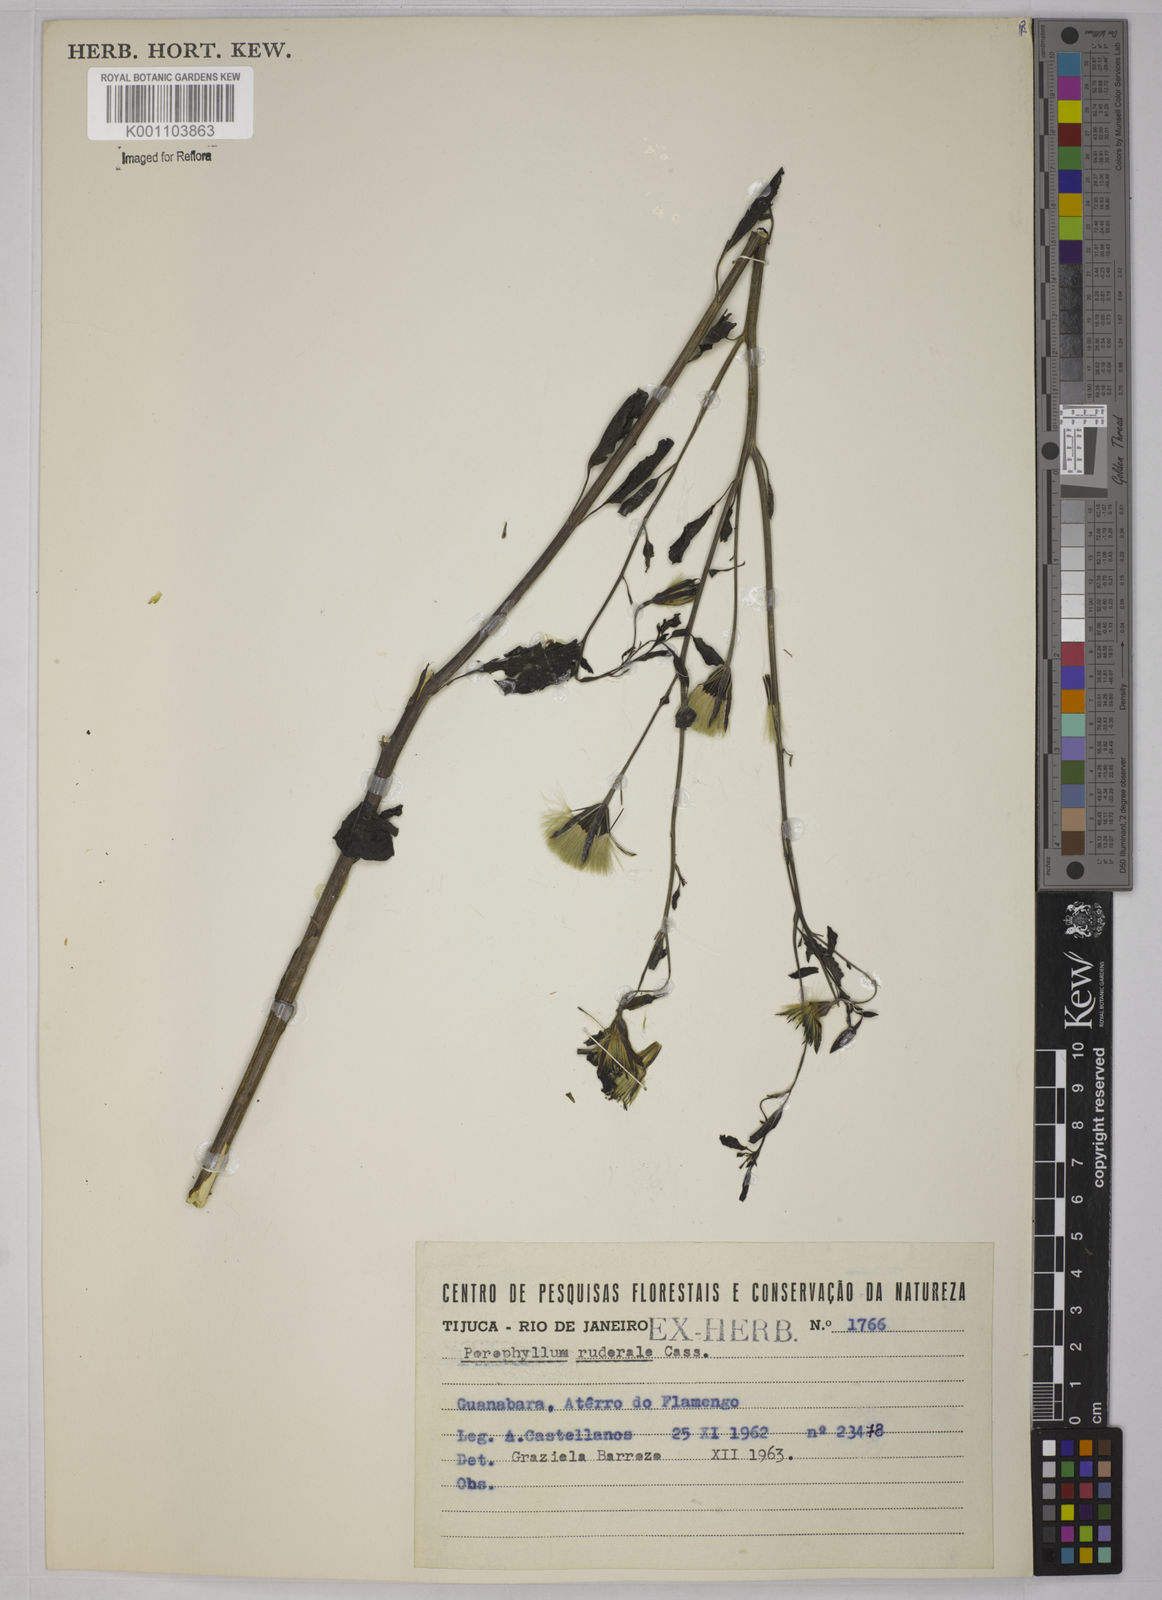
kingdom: Plantae
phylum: Tracheophyta
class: Magnoliopsida
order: Asterales
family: Asteraceae
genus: Porophyllum
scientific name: Porophyllum ruderale
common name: Yerba porosa
